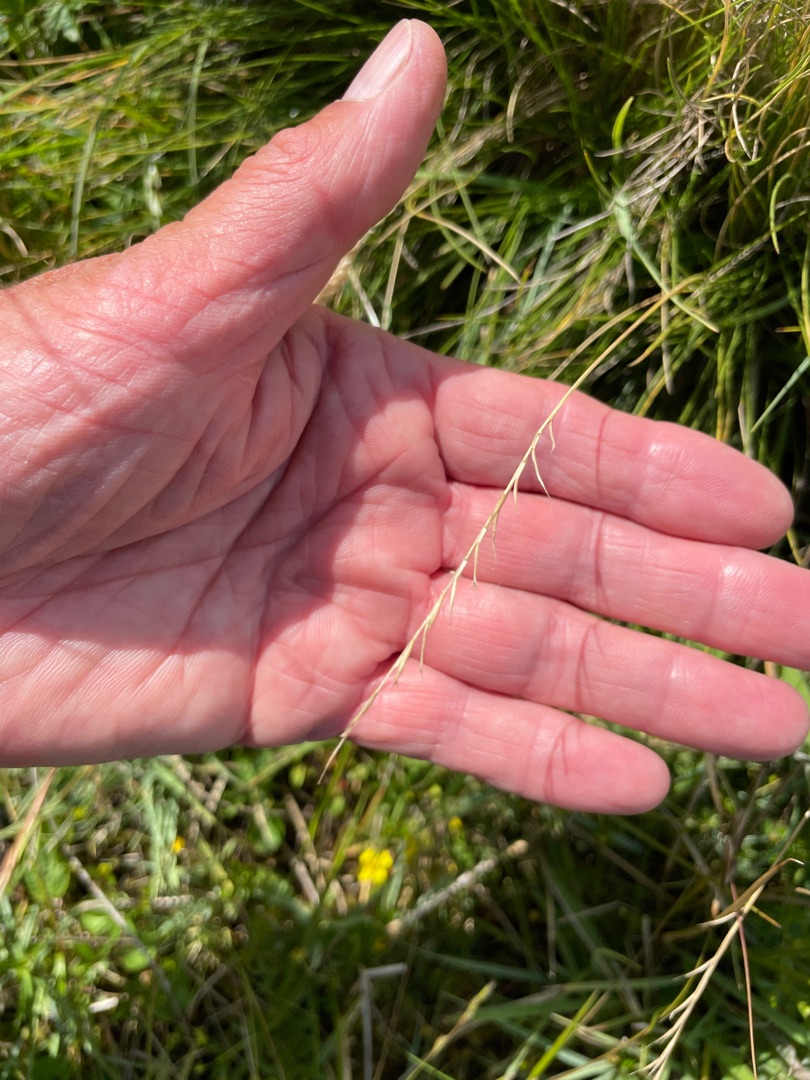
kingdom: Plantae
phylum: Tracheophyta
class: Liliopsida
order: Poales
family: Poaceae
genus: Nardus
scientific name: Nardus stricta
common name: Katteskæg
